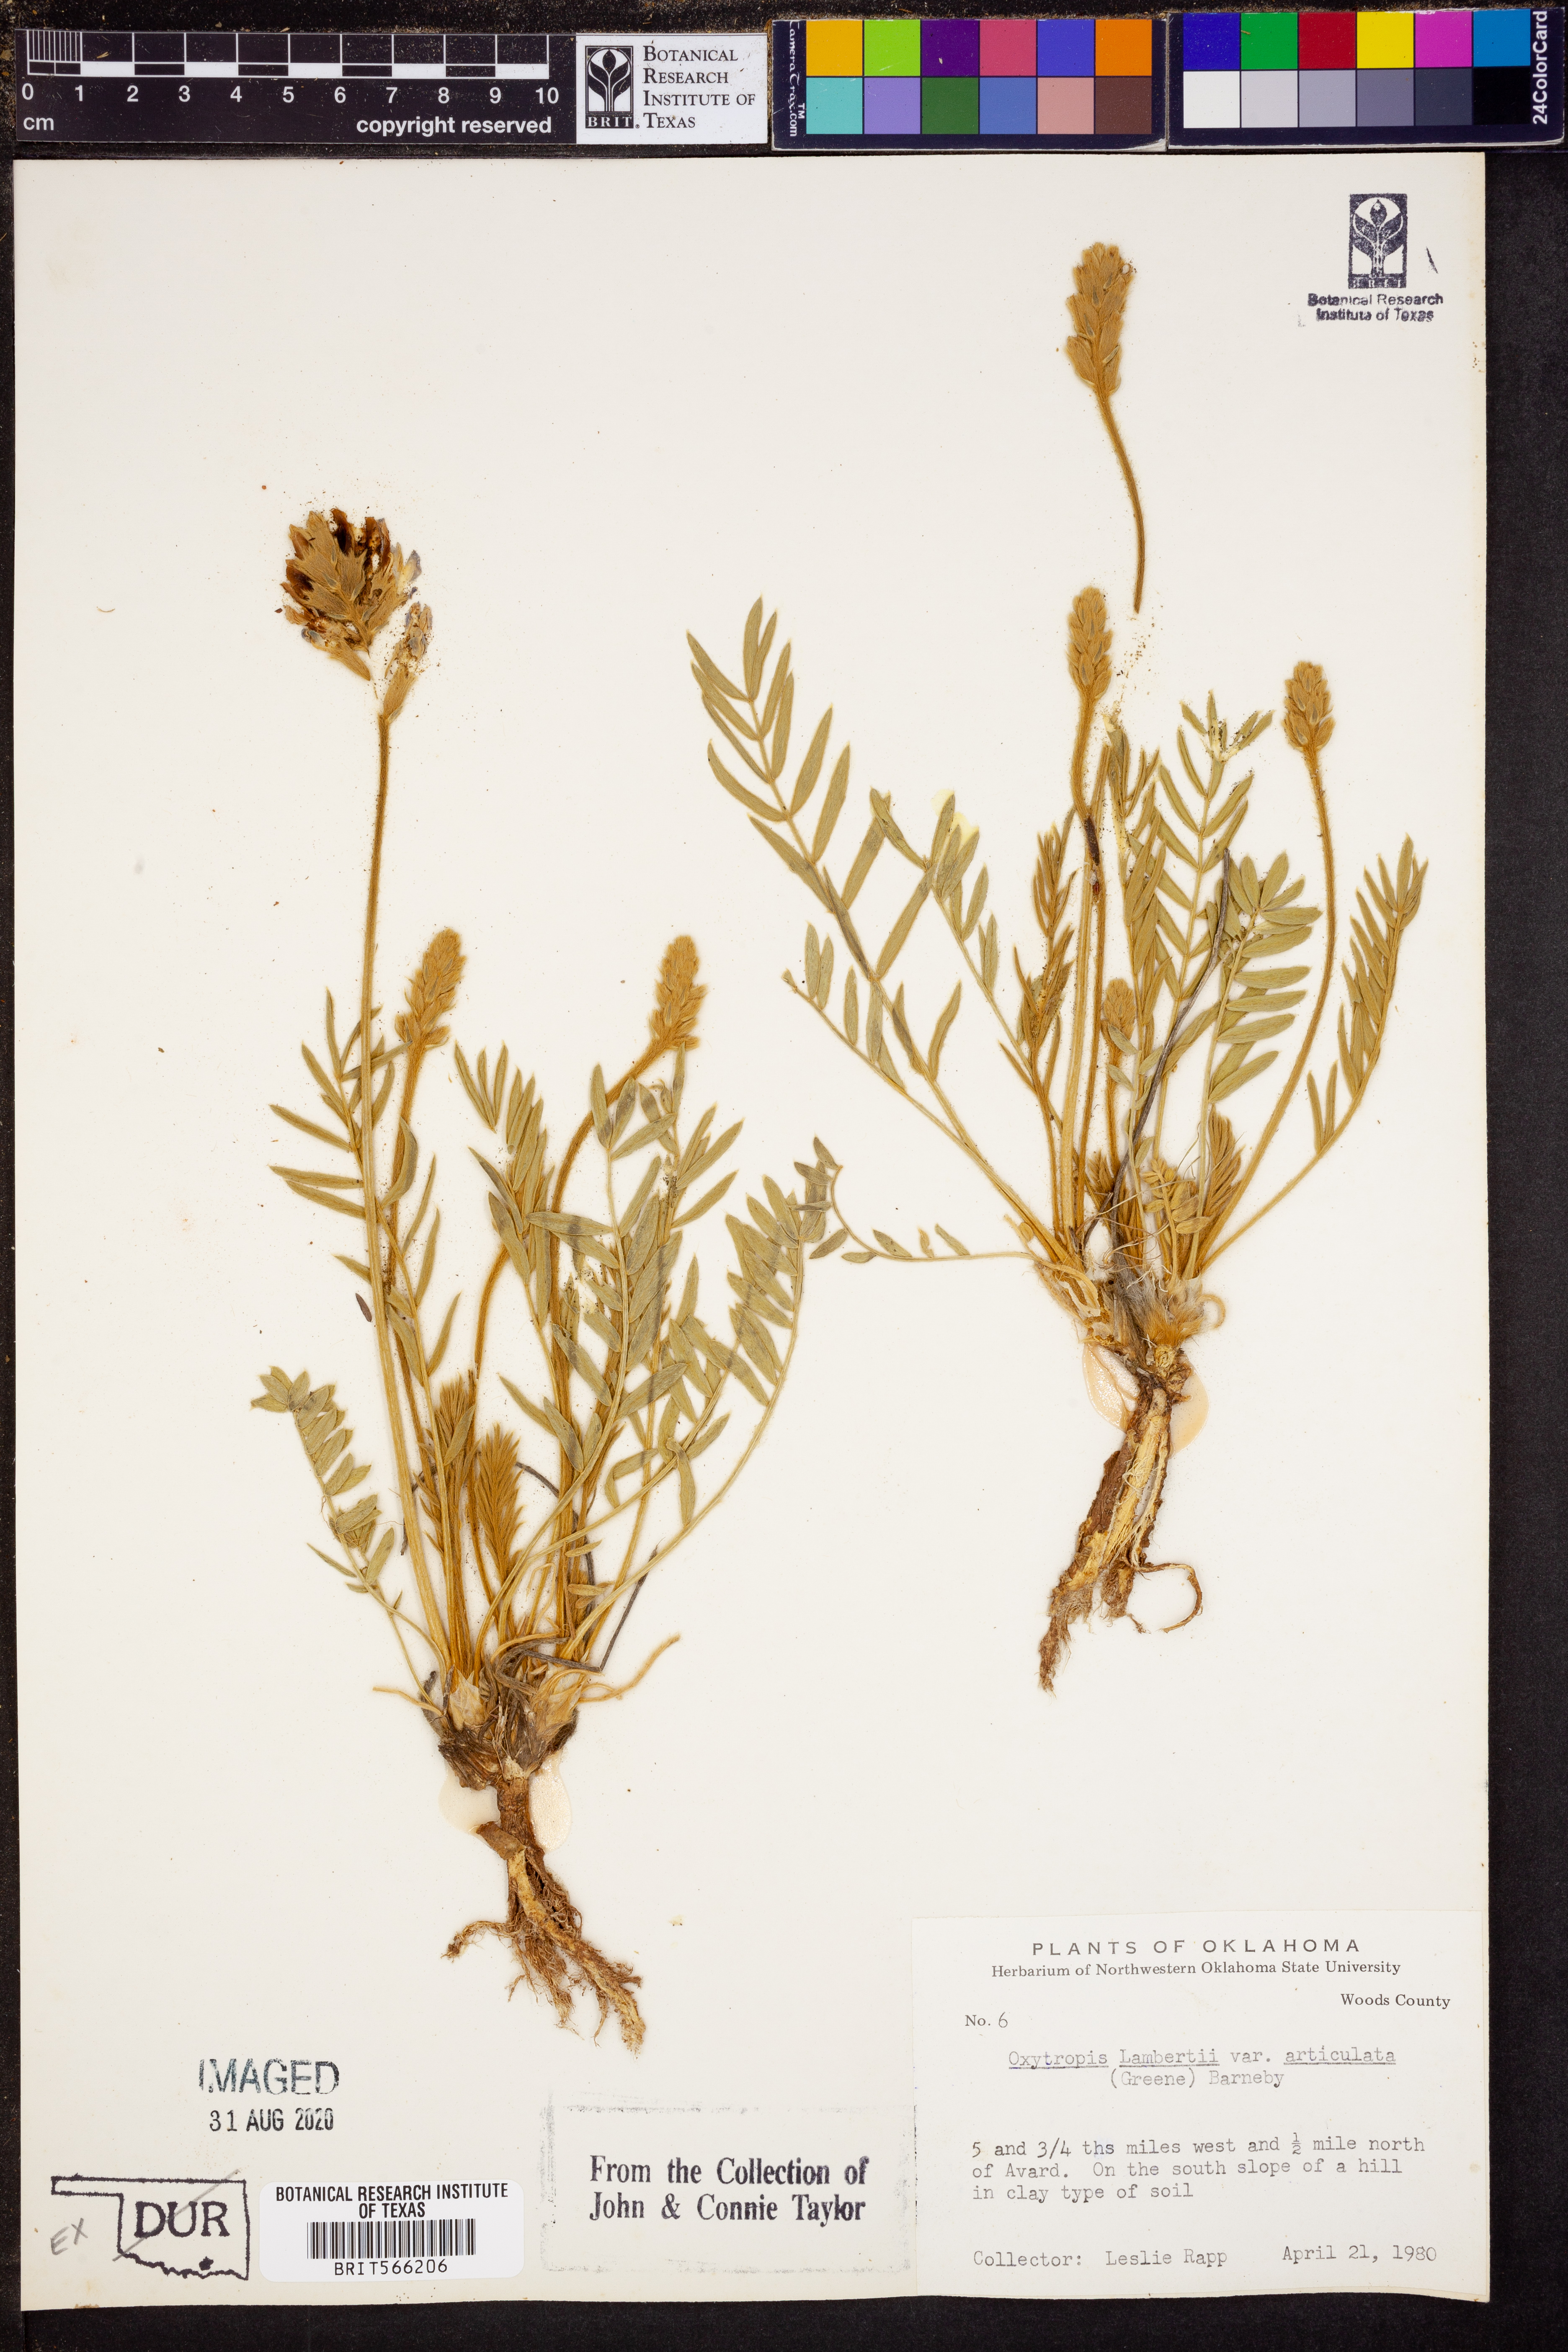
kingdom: Plantae
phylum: Tracheophyta
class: Magnoliopsida
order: Fabales
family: Fabaceae
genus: Oxytropis
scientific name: Oxytropis lambertii
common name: Purple locoweed
